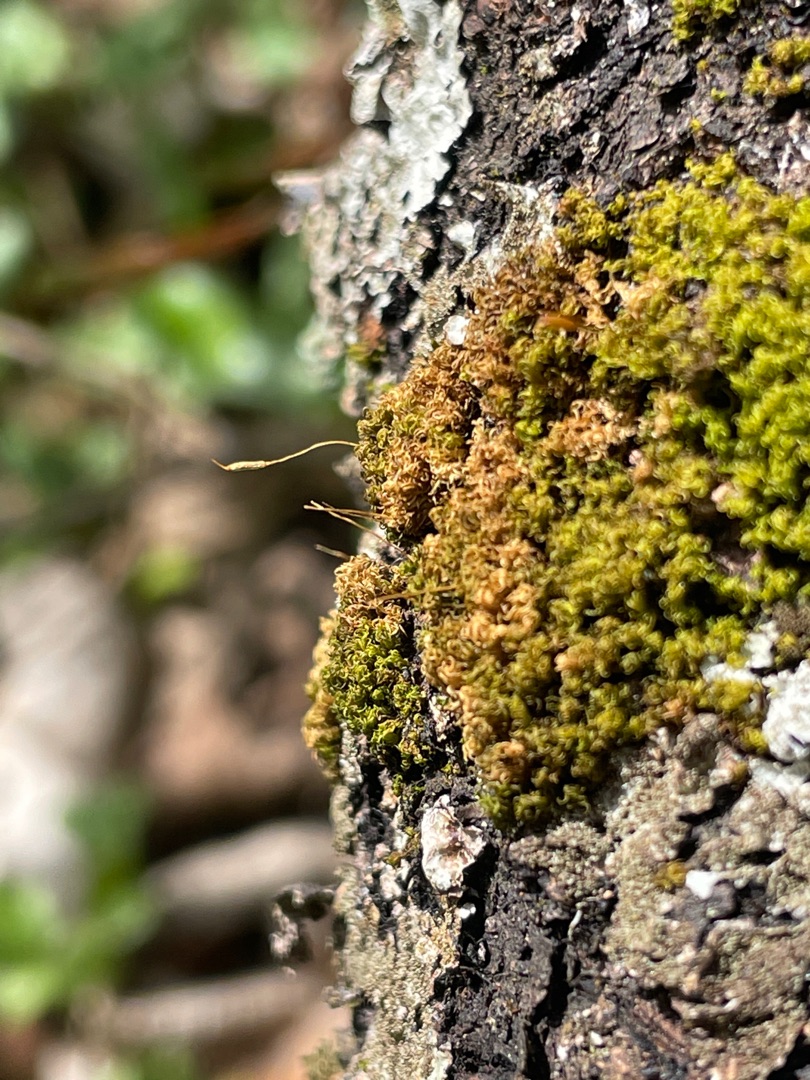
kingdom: Plantae
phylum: Bryophyta
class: Bryopsida
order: Dicranales
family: Rhabdoweisiaceae
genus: Dicranoweisia
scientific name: Dicranoweisia cirrata
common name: Almindelig krøltuemos
